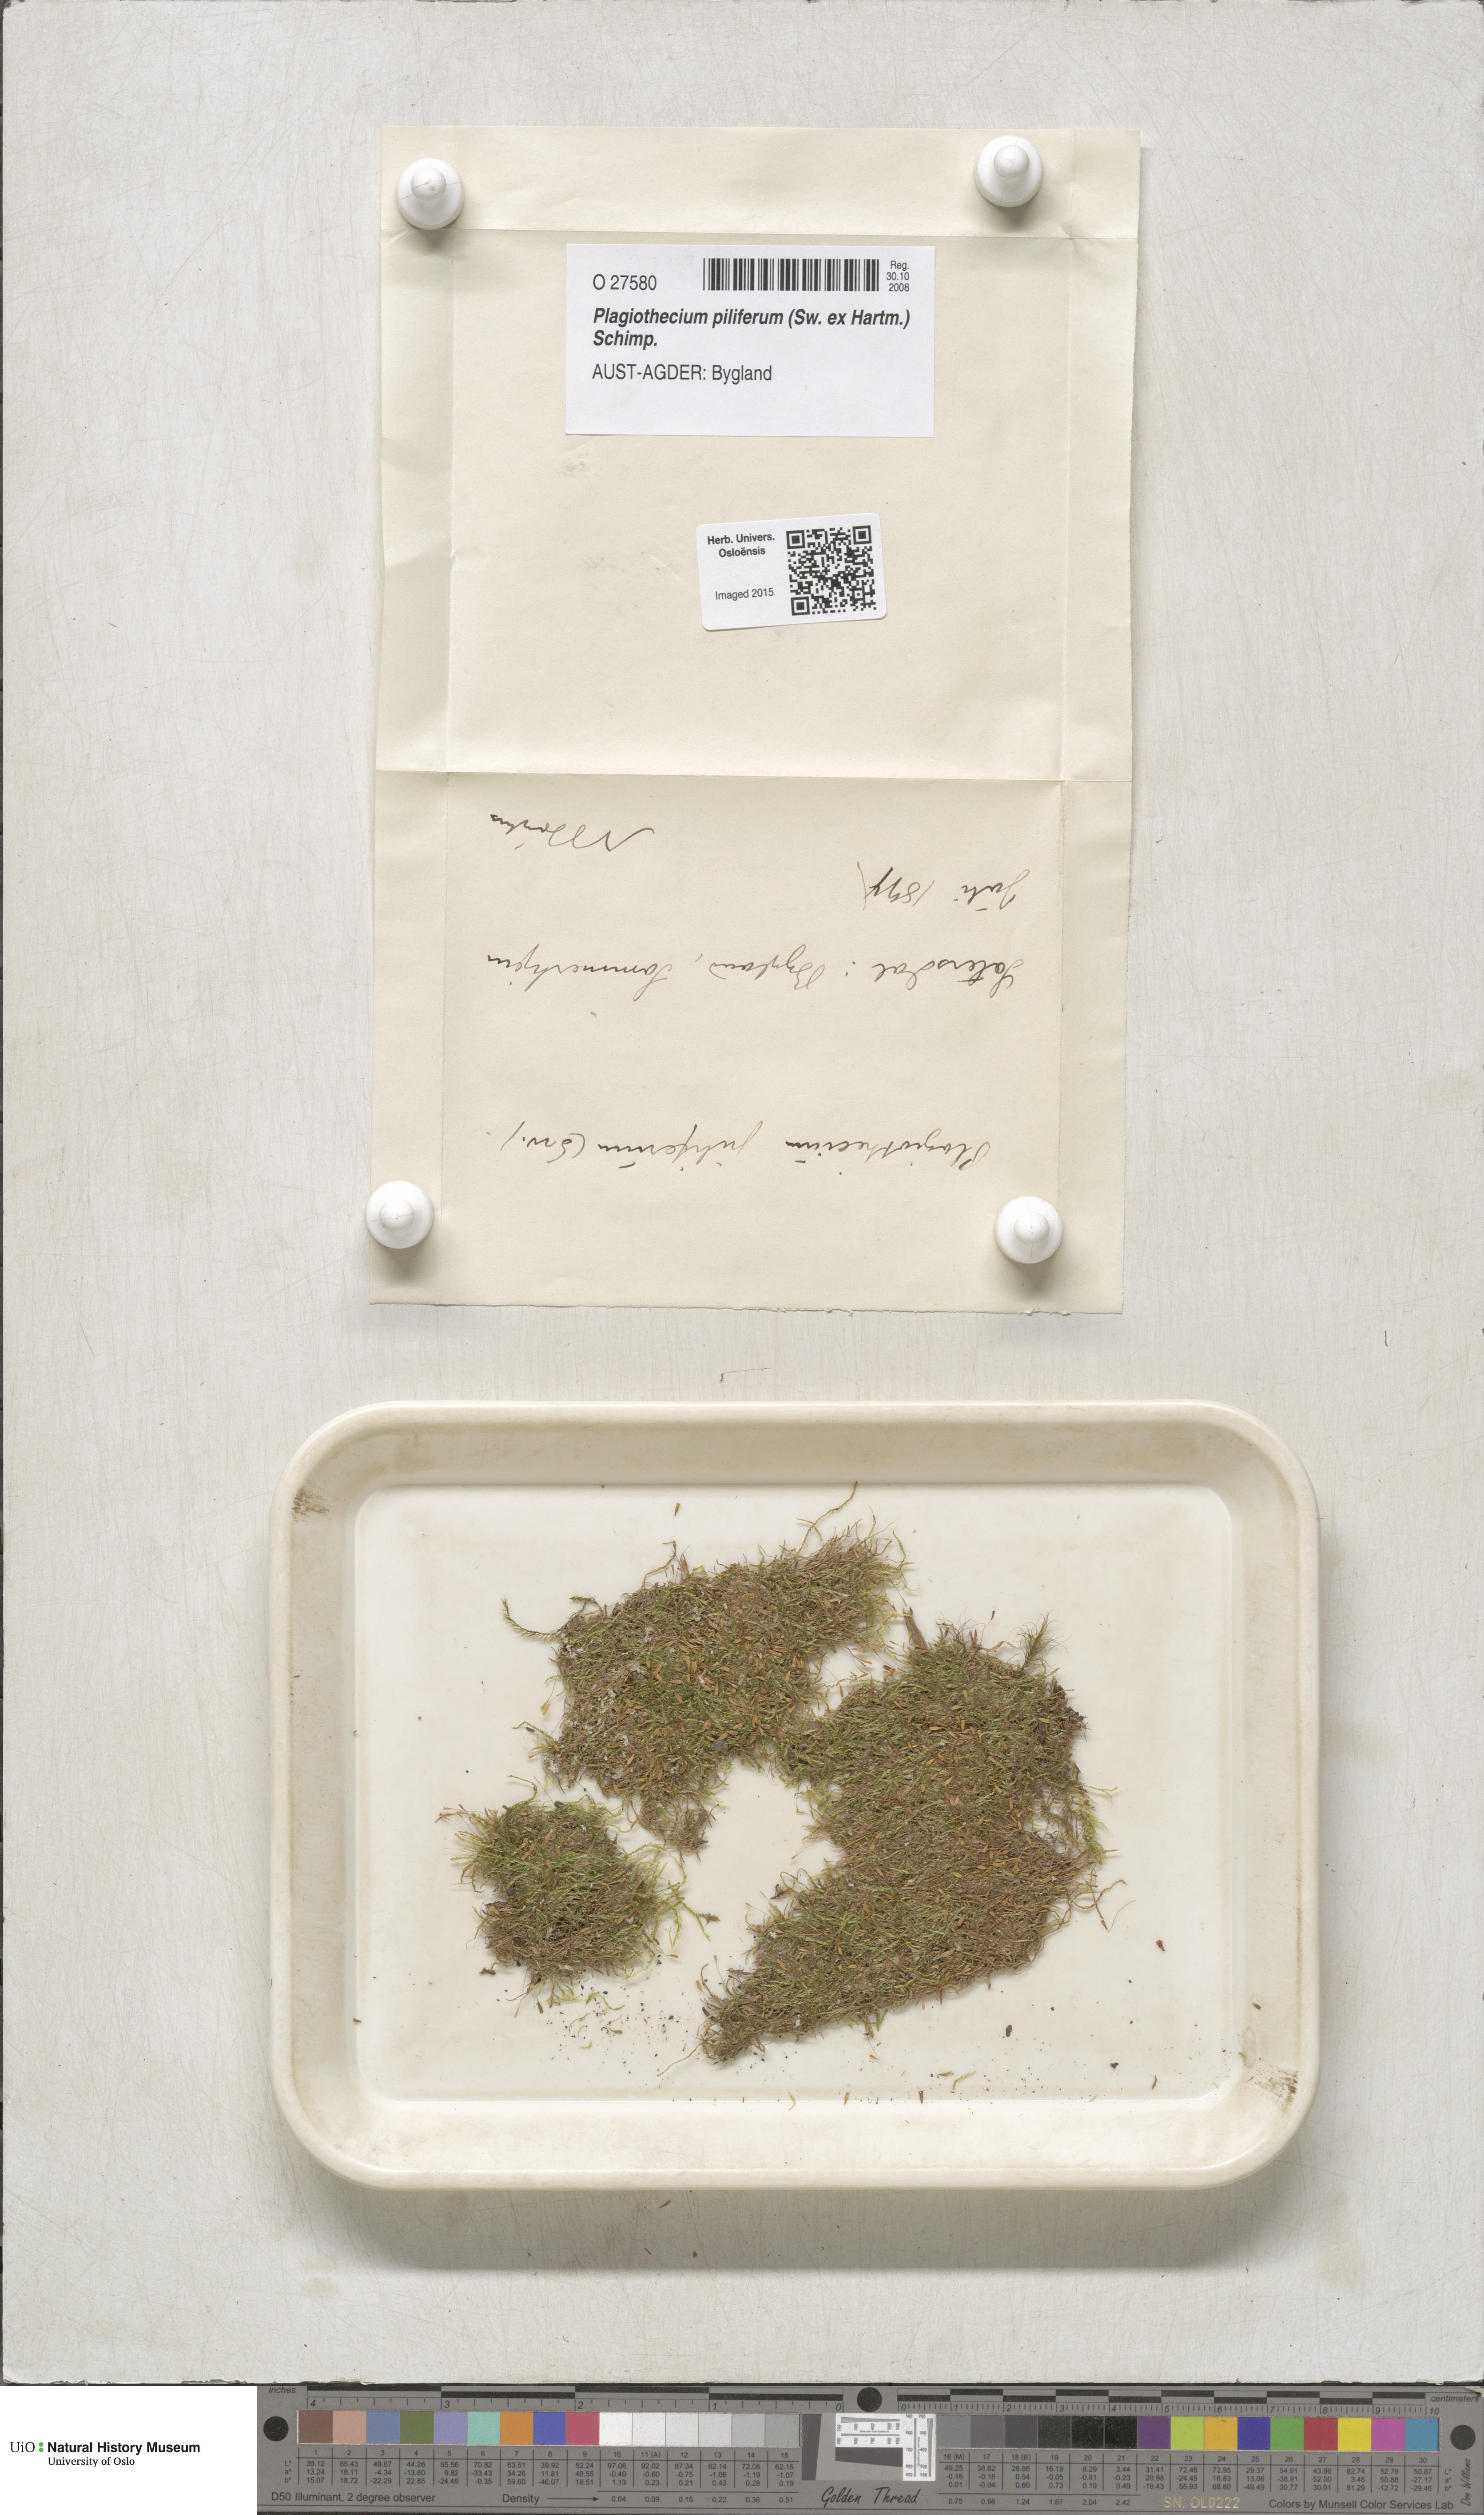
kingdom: Plantae
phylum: Bryophyta
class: Bryopsida
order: Hypnales
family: Plagiotheciaceae
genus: Rectithecium
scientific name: Rectithecium piliferum
